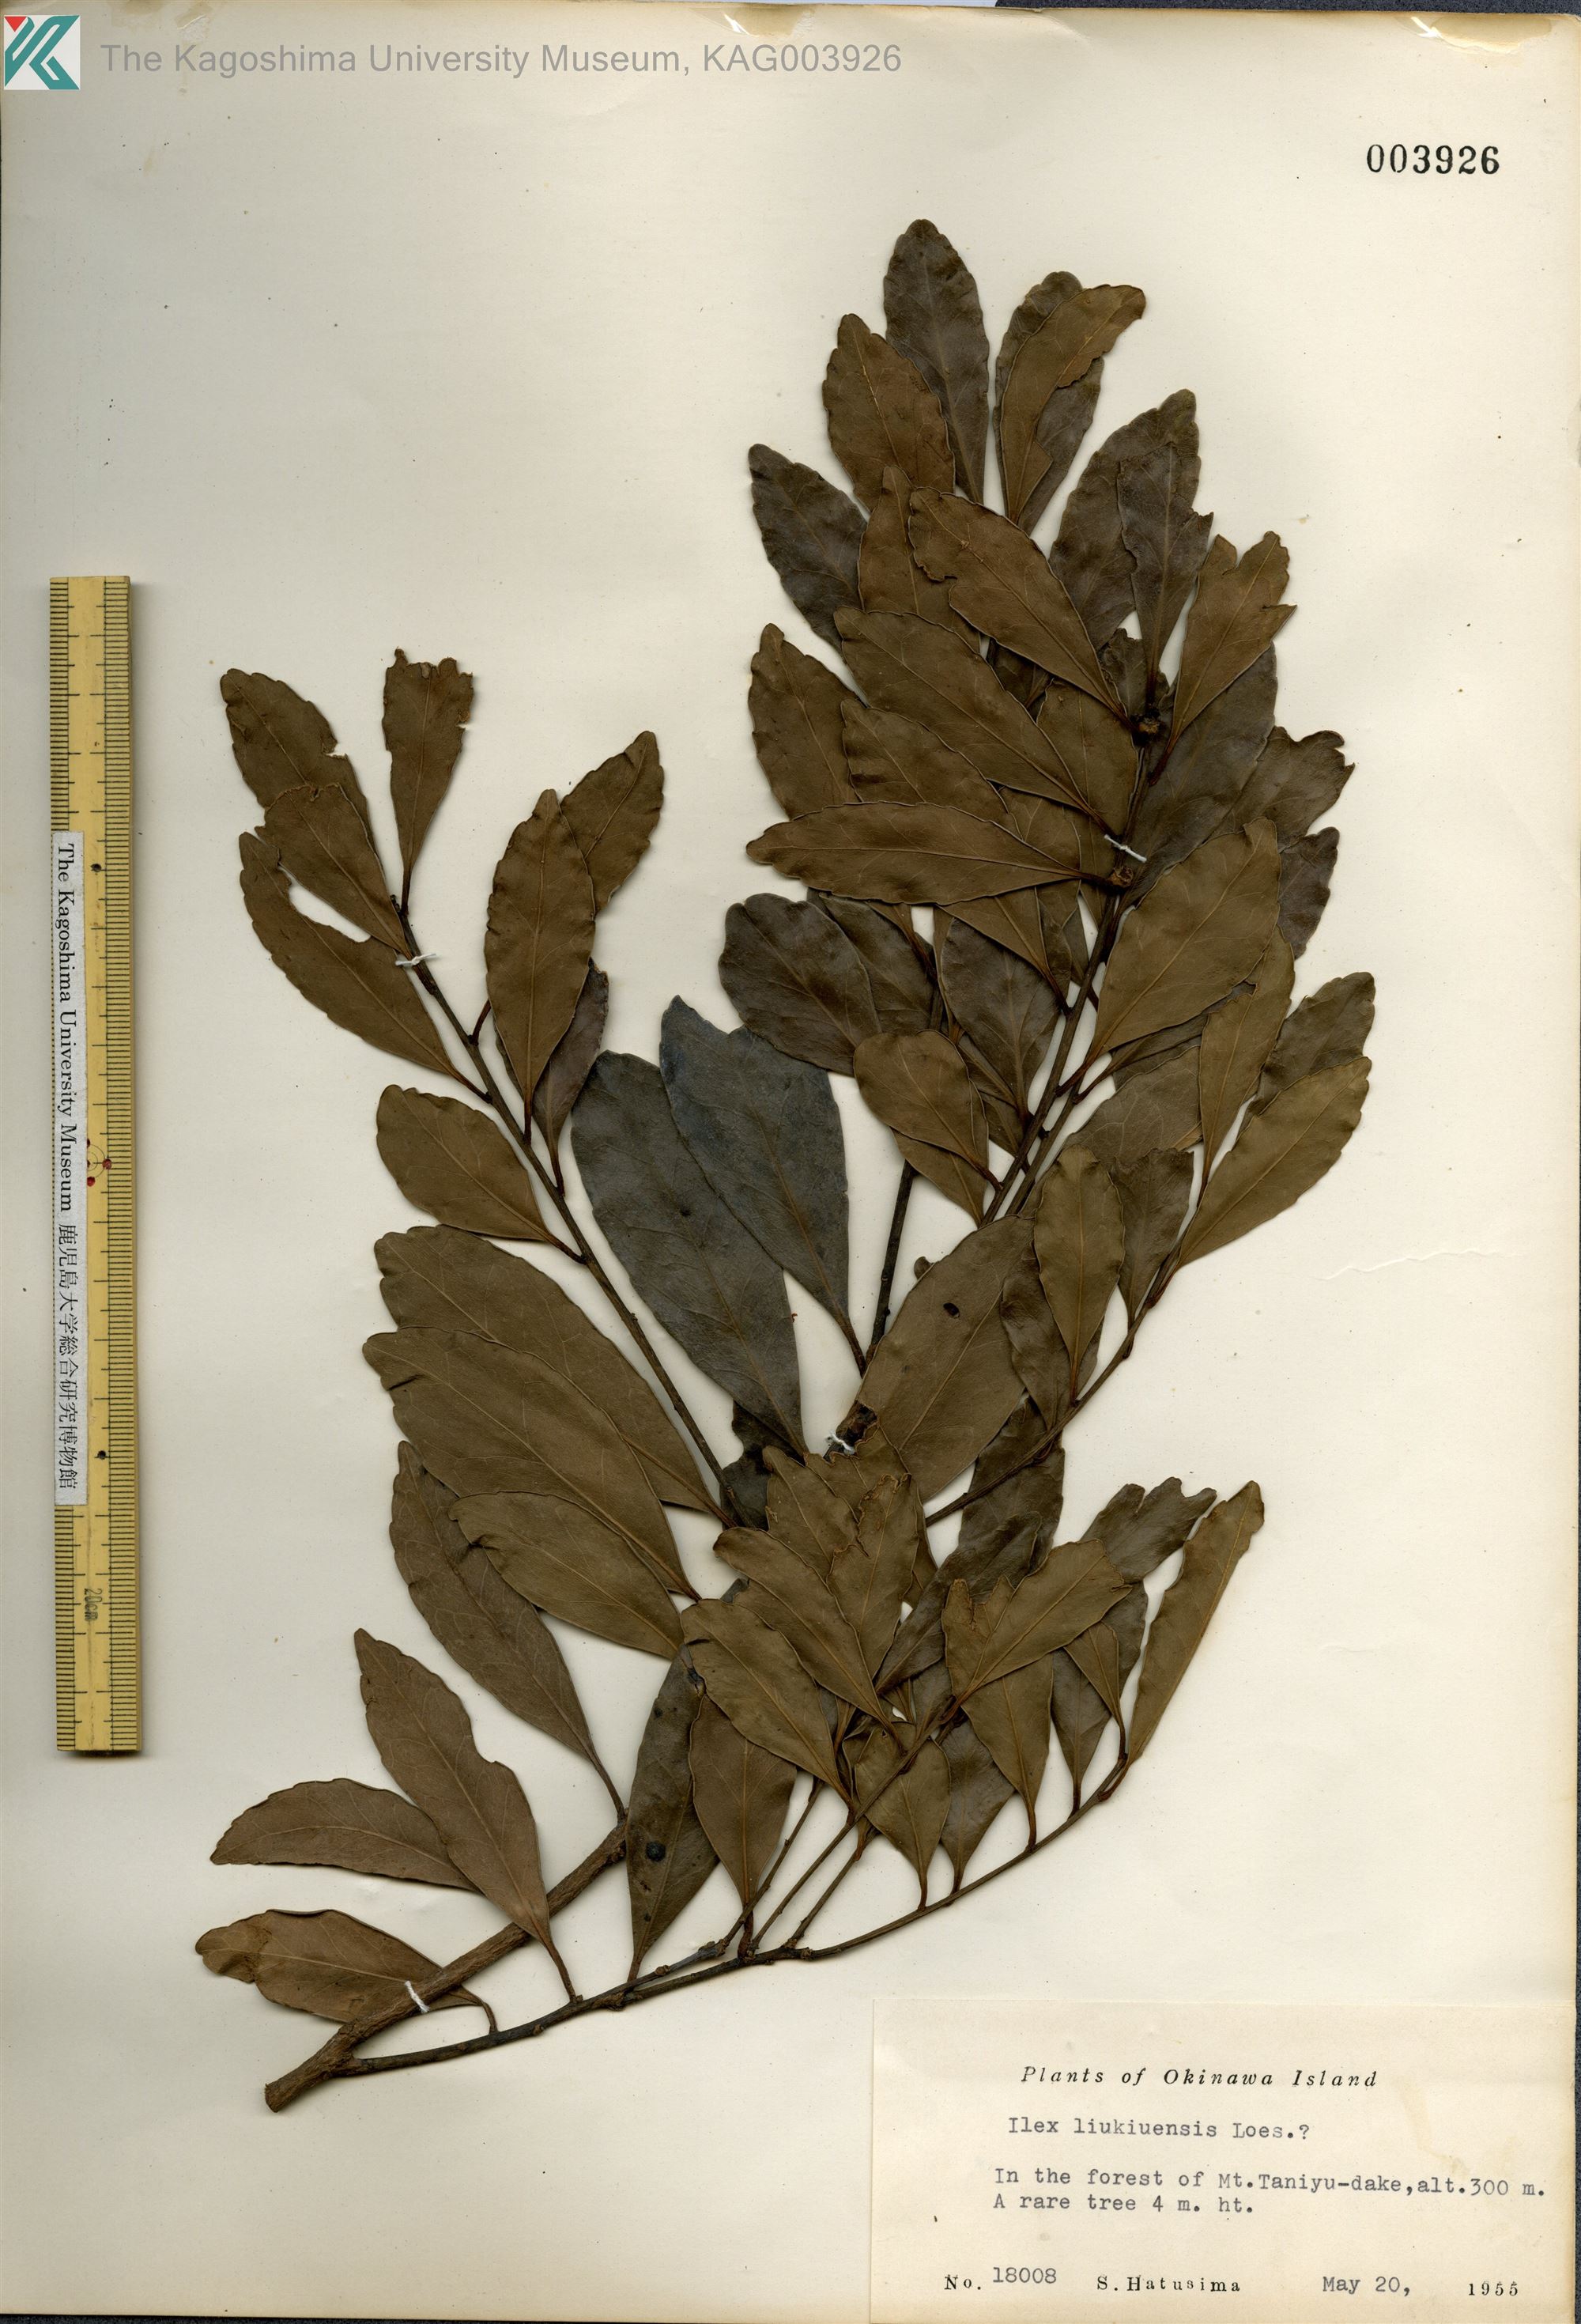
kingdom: Plantae
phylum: Tracheophyta
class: Magnoliopsida
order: Aquifoliales
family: Aquifoliaceae
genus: Ilex
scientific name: Ilex liukiuensis
